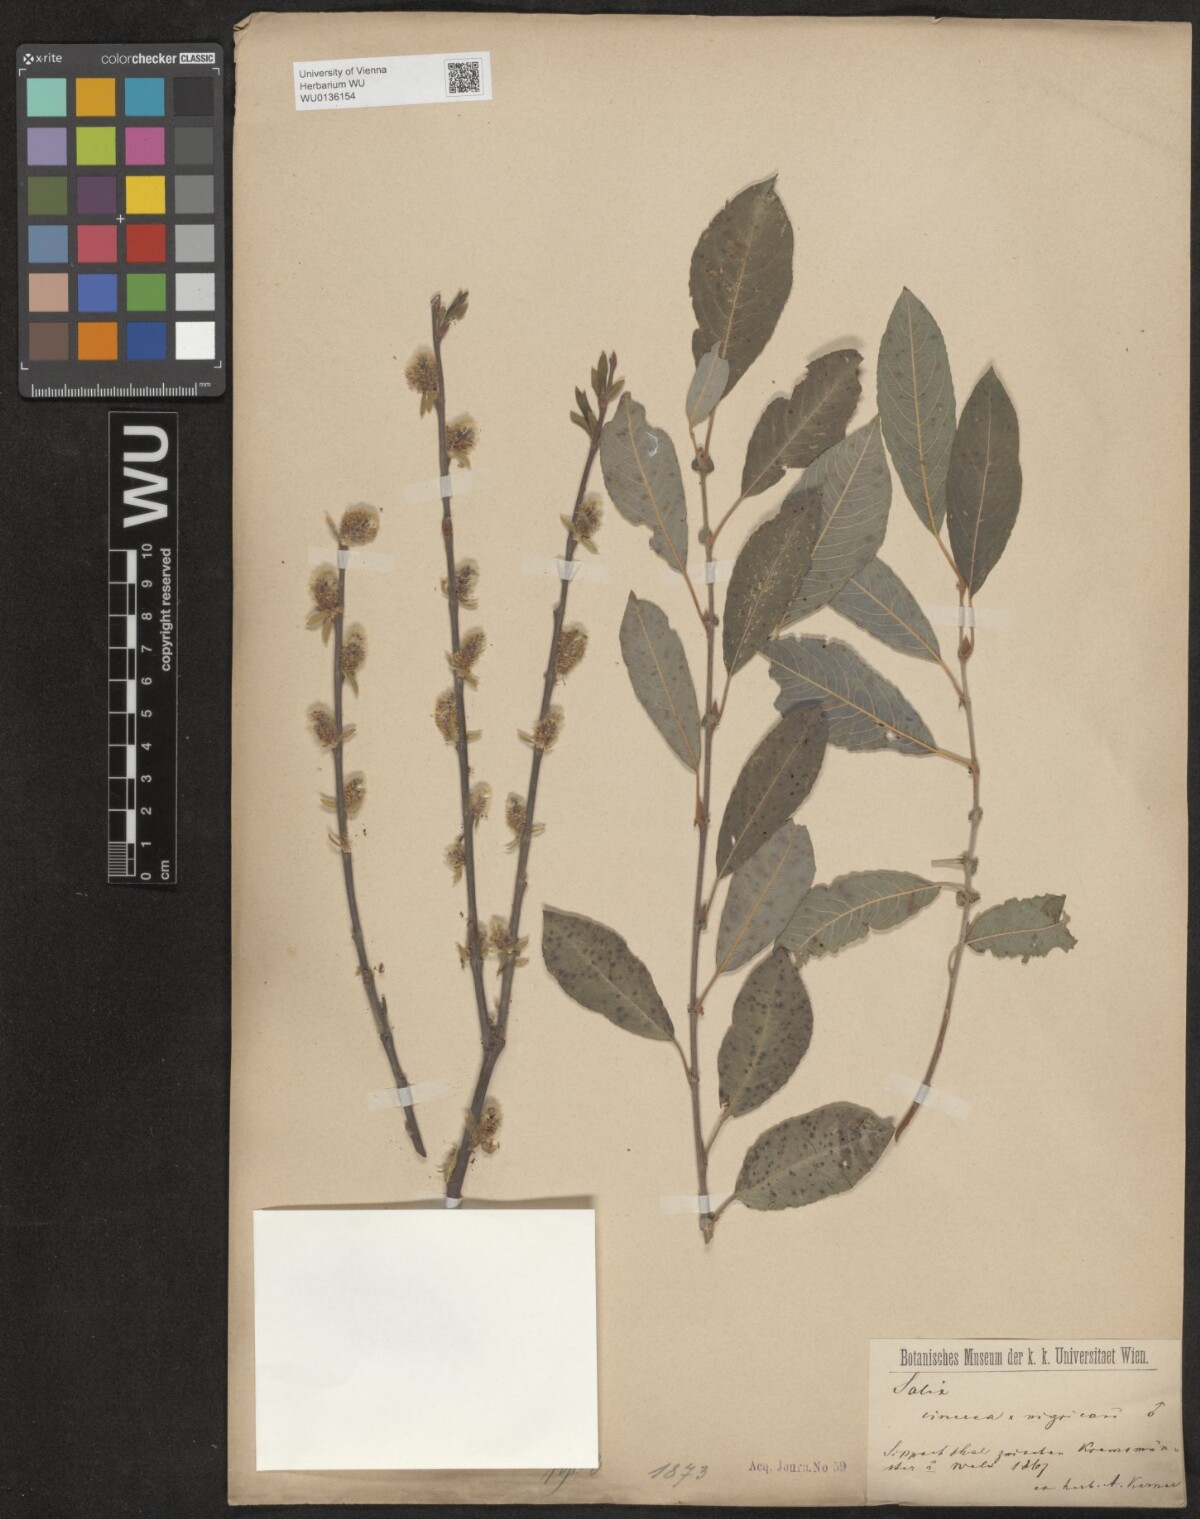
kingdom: Plantae
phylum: Tracheophyta
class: Magnoliopsida
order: Malpighiales
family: Salicaceae
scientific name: Salicaceae
